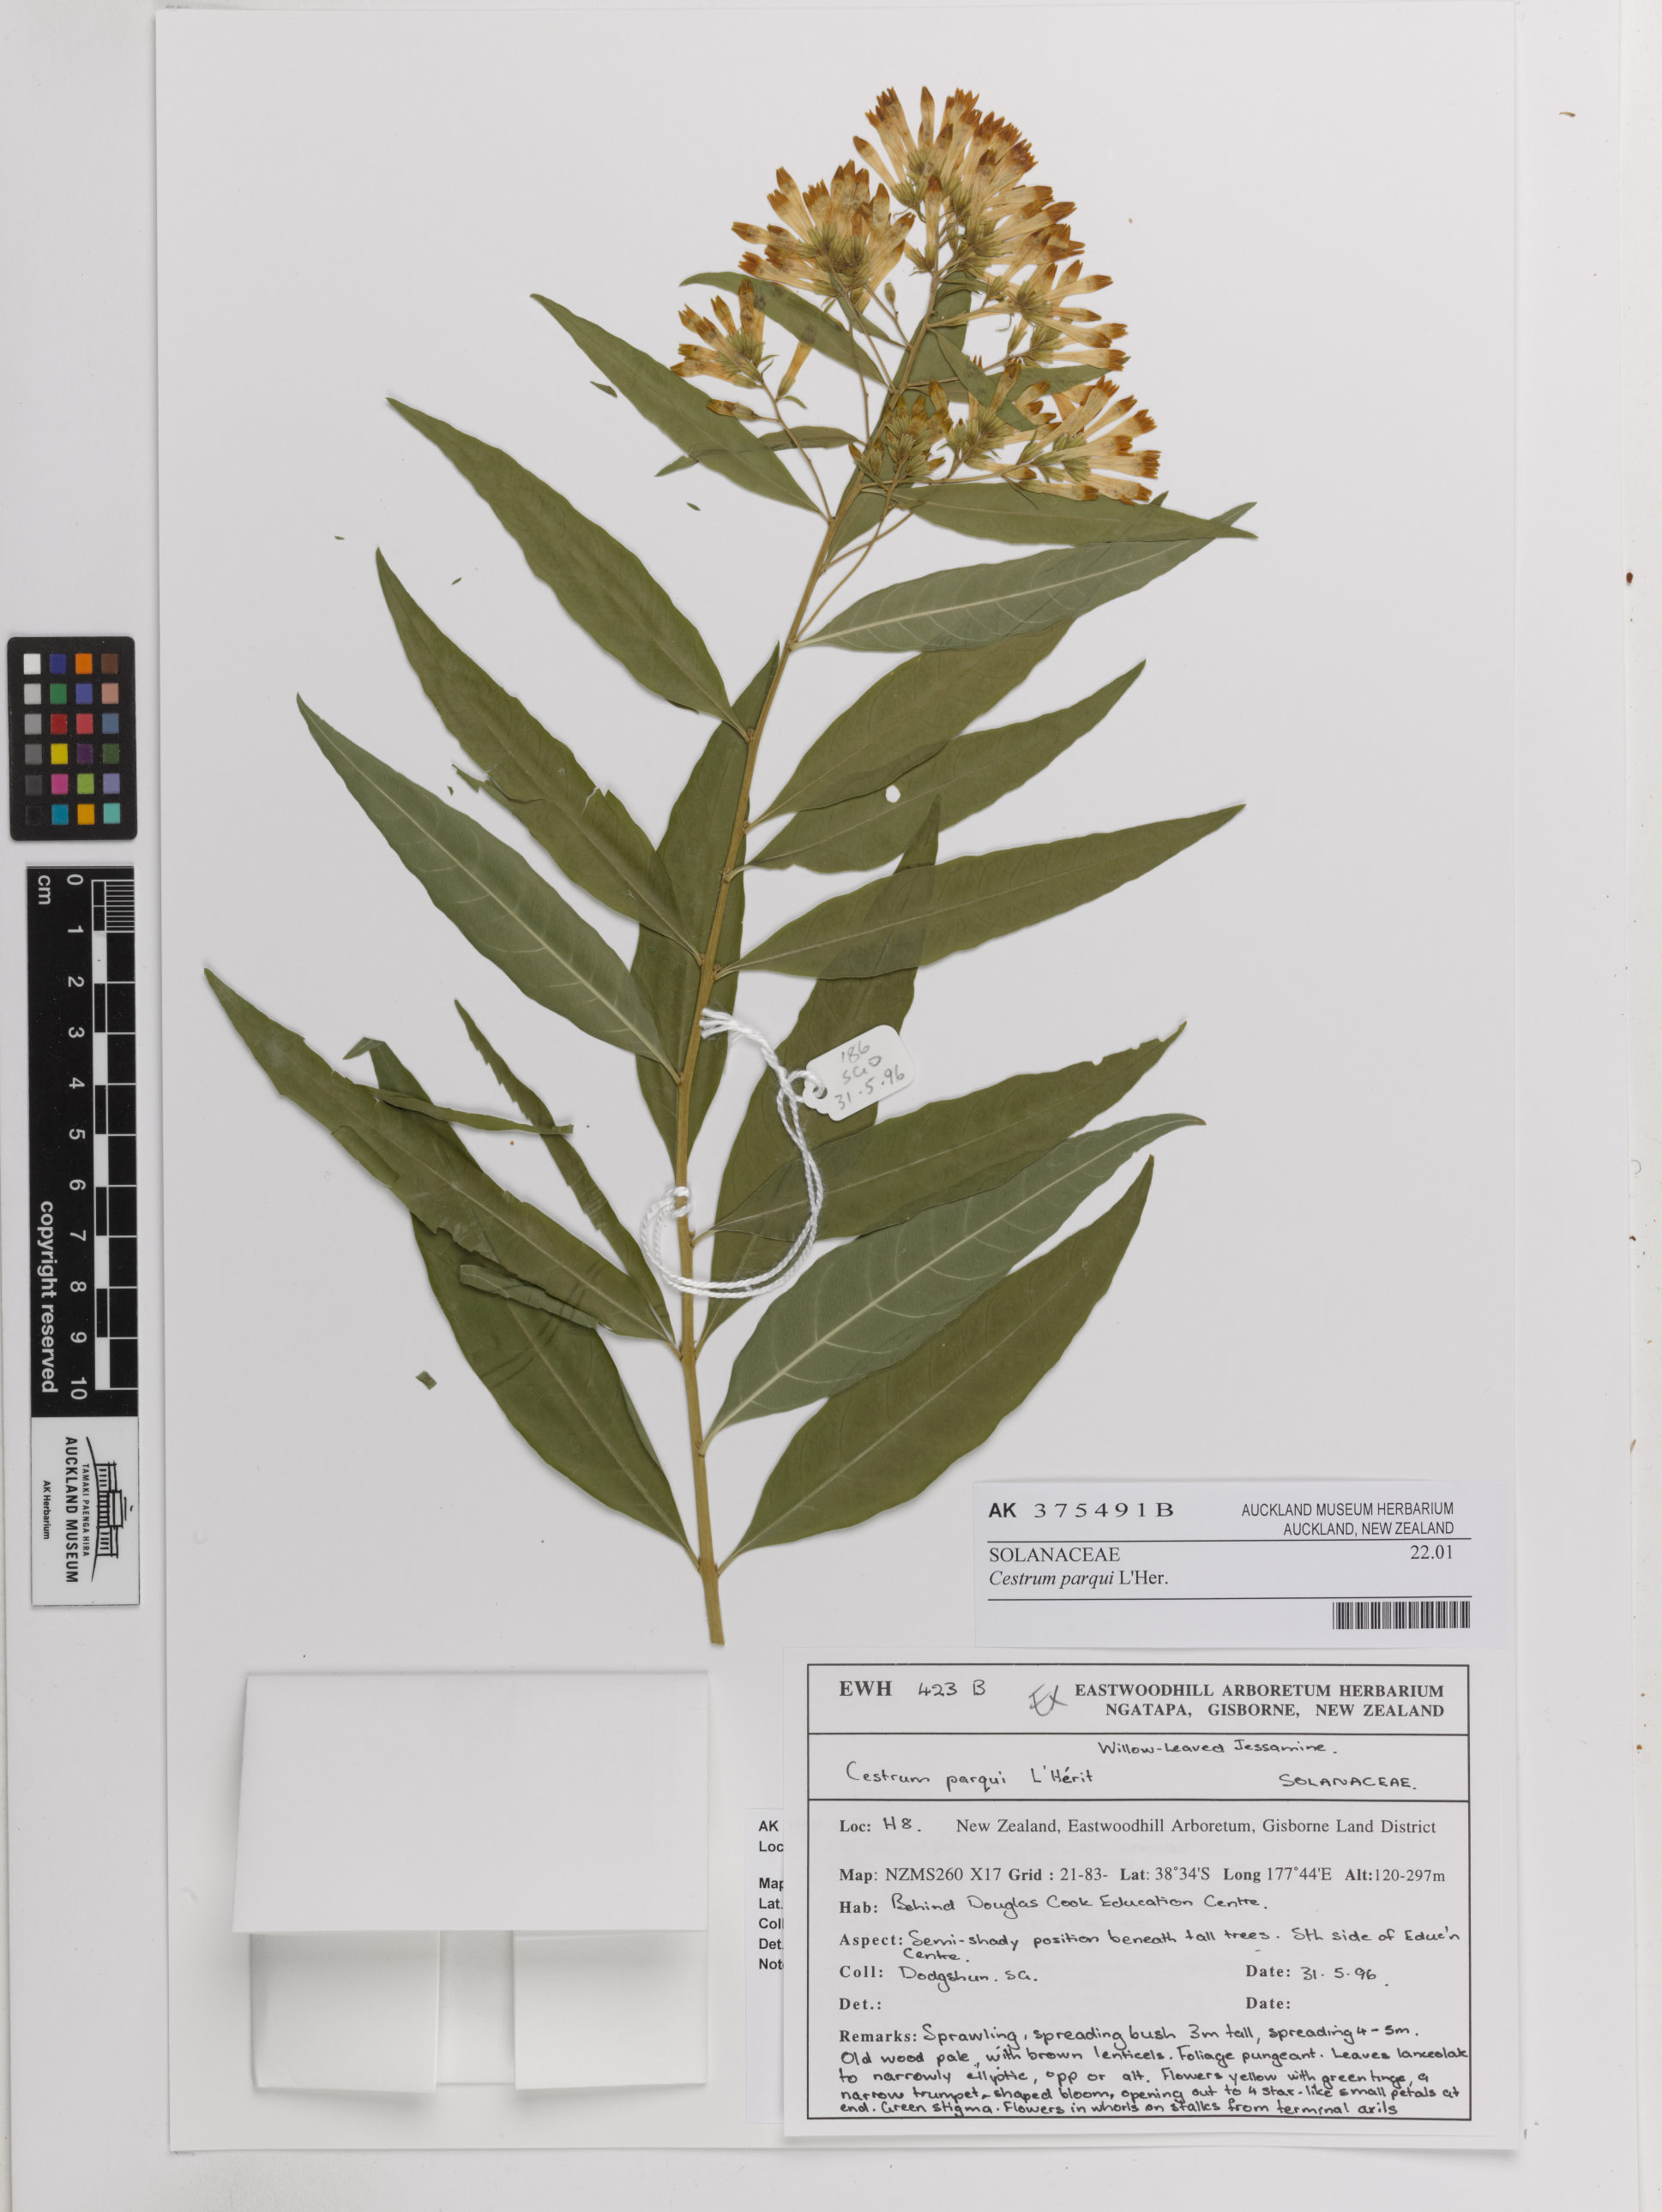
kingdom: Plantae
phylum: Tracheophyta
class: Magnoliopsida
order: Solanales
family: Solanaceae
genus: Cestrum
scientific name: Cestrum thyrsoideum
